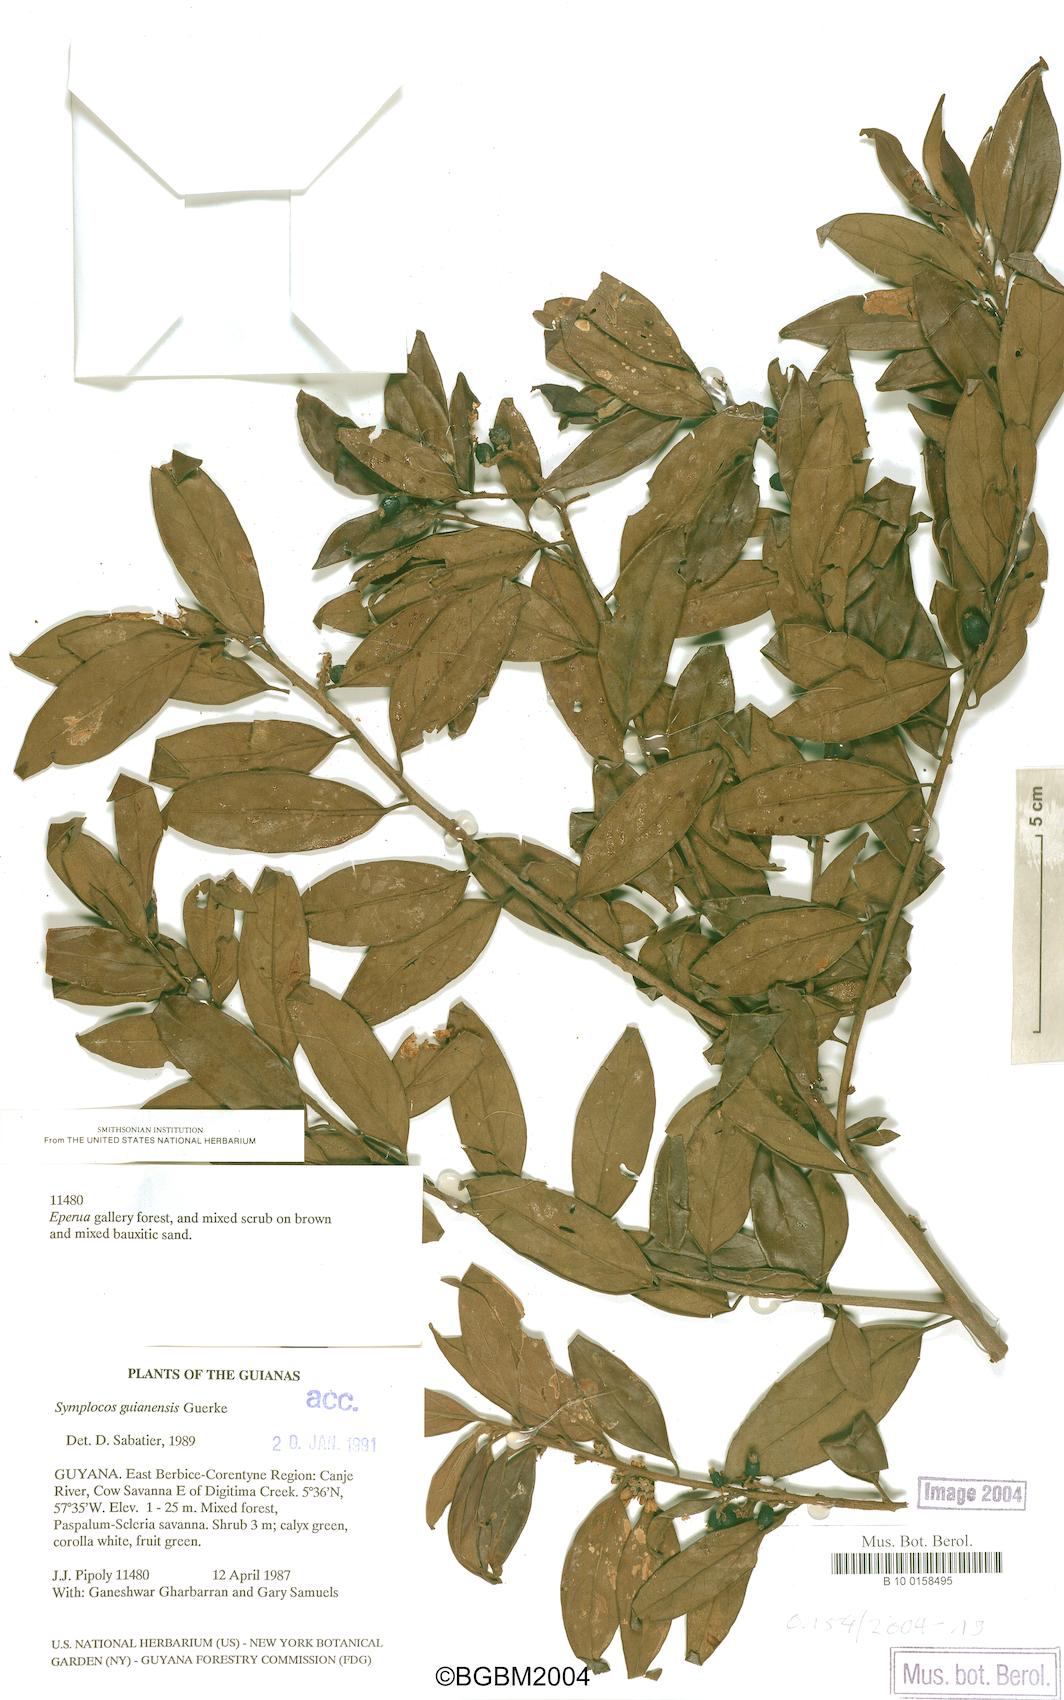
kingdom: Plantae
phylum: Tracheophyta
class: Magnoliopsida
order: Ericales
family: Symplocaceae
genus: Symplocos
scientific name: Symplocos guianensis
